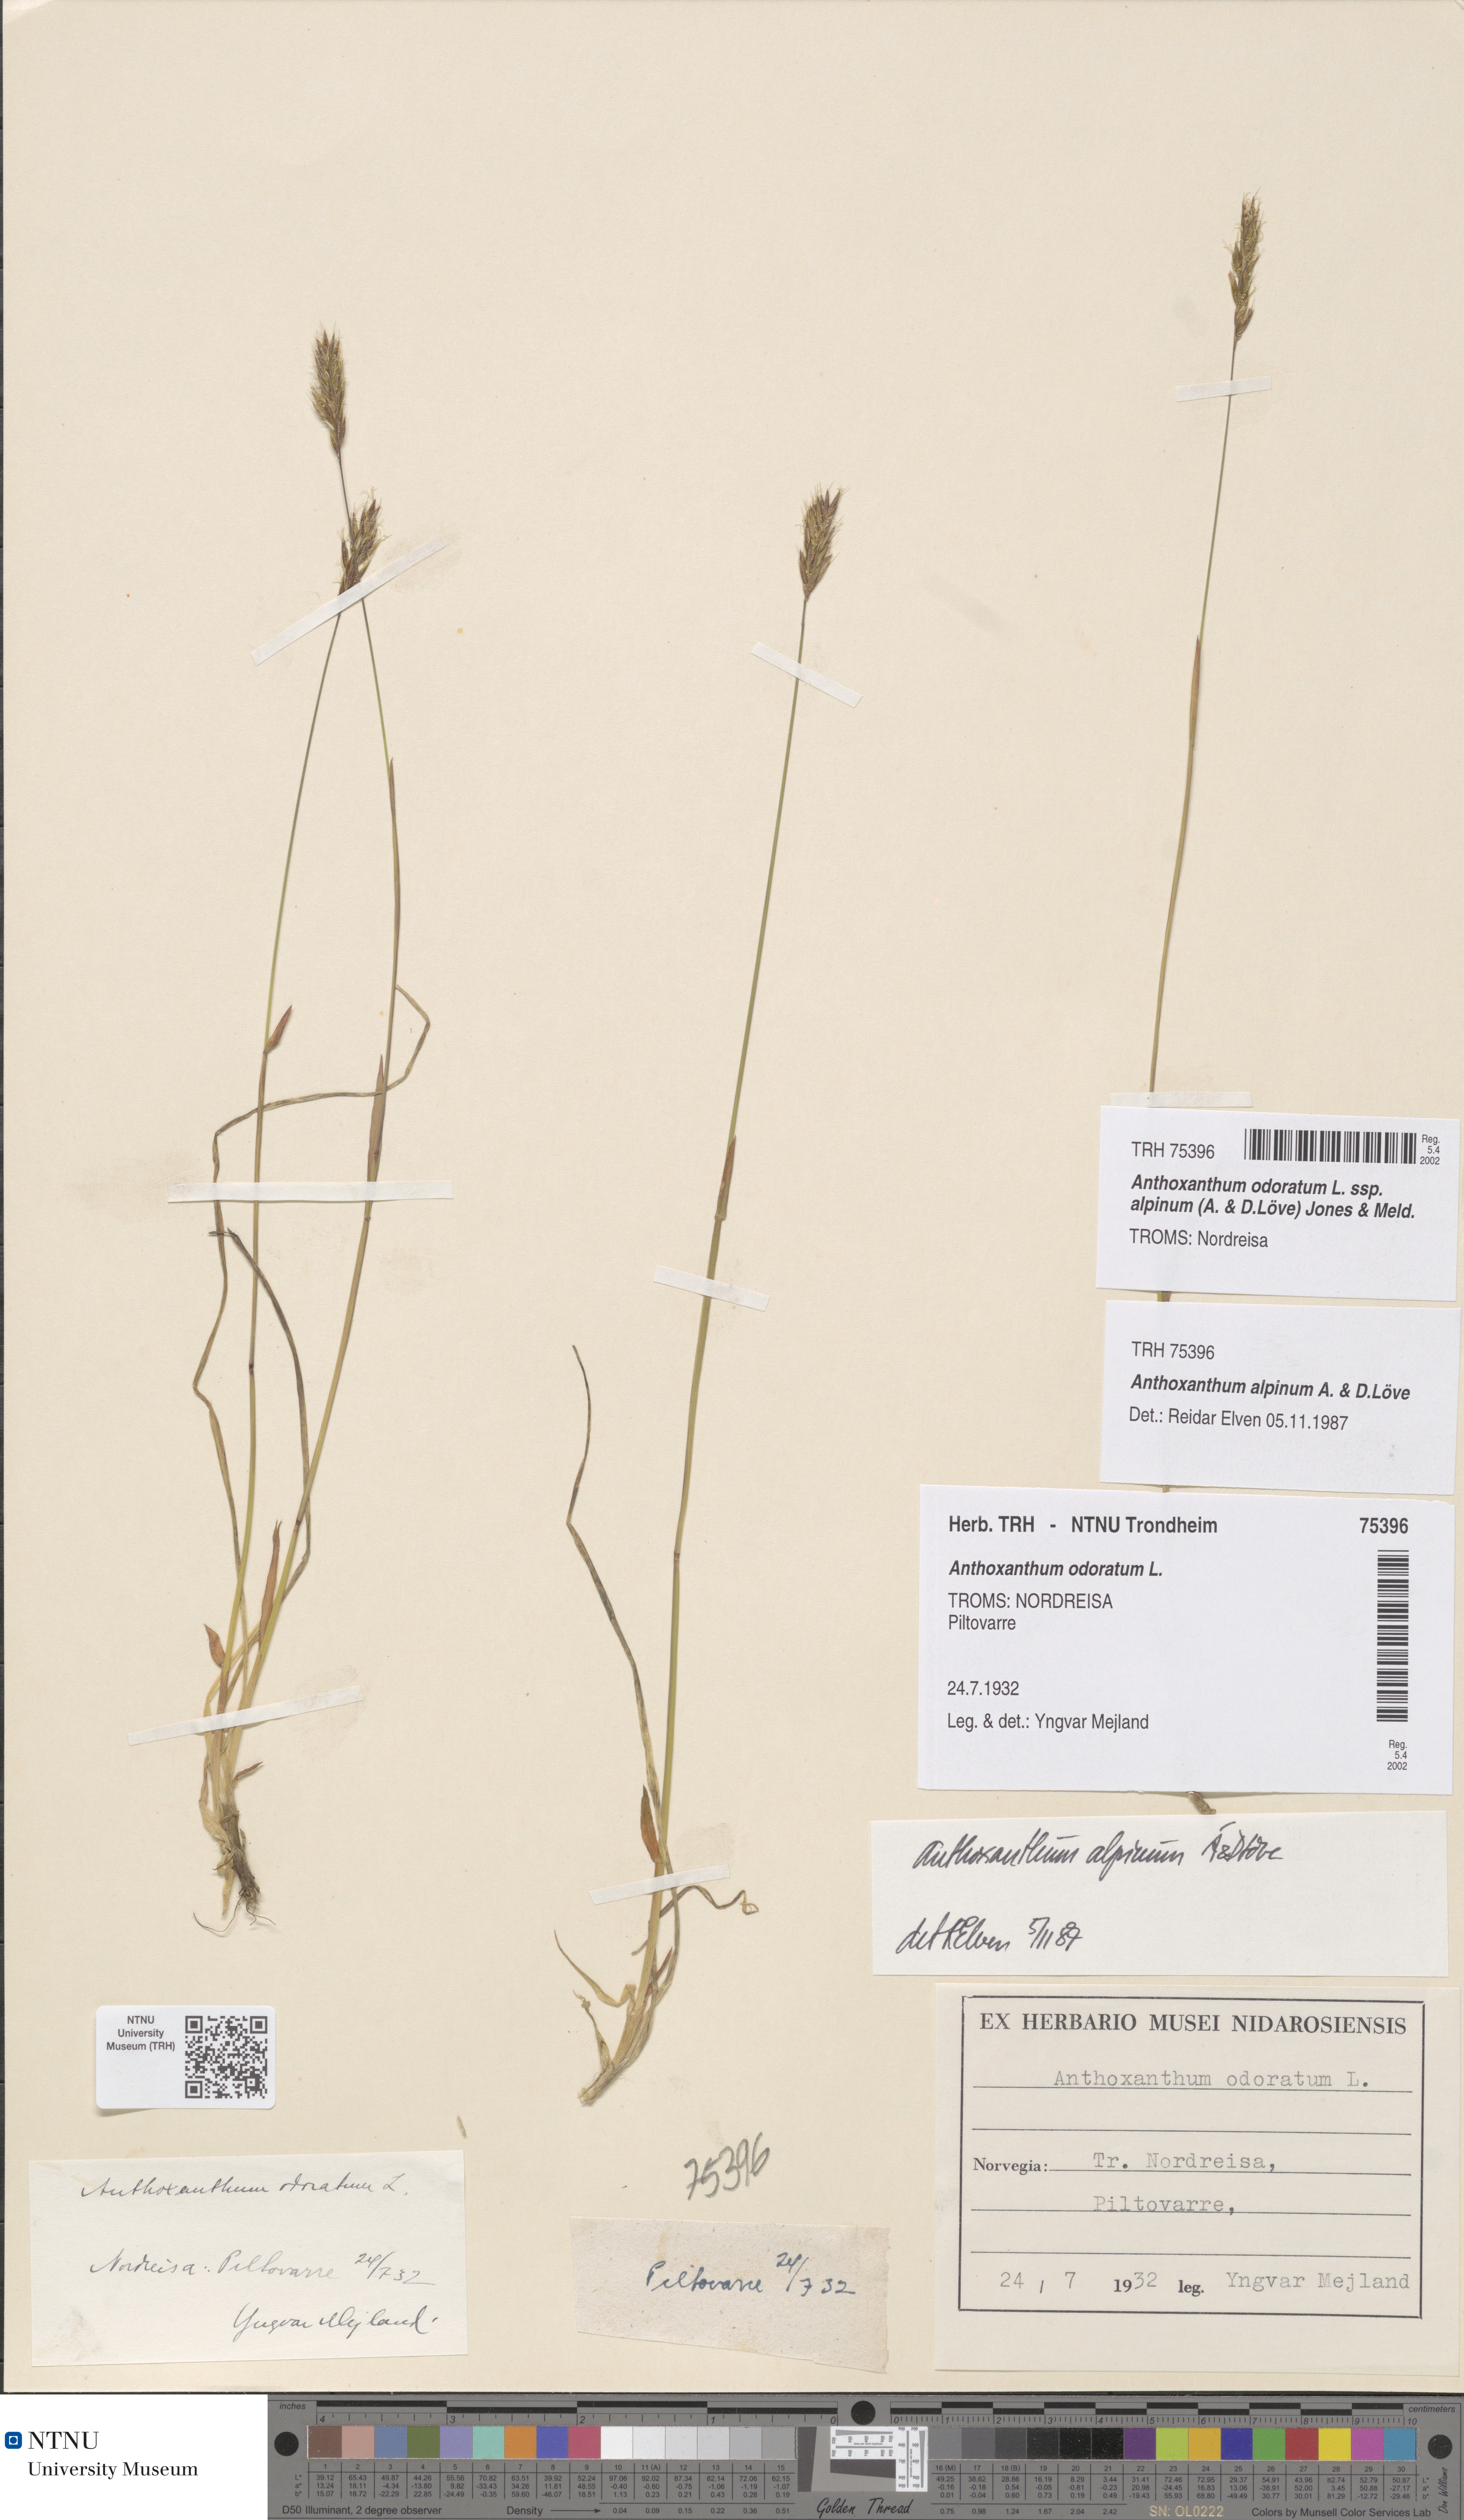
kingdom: Plantae
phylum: Tracheophyta
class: Liliopsida
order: Poales
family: Poaceae
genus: Anthoxanthum
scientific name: Anthoxanthum nipponicum
